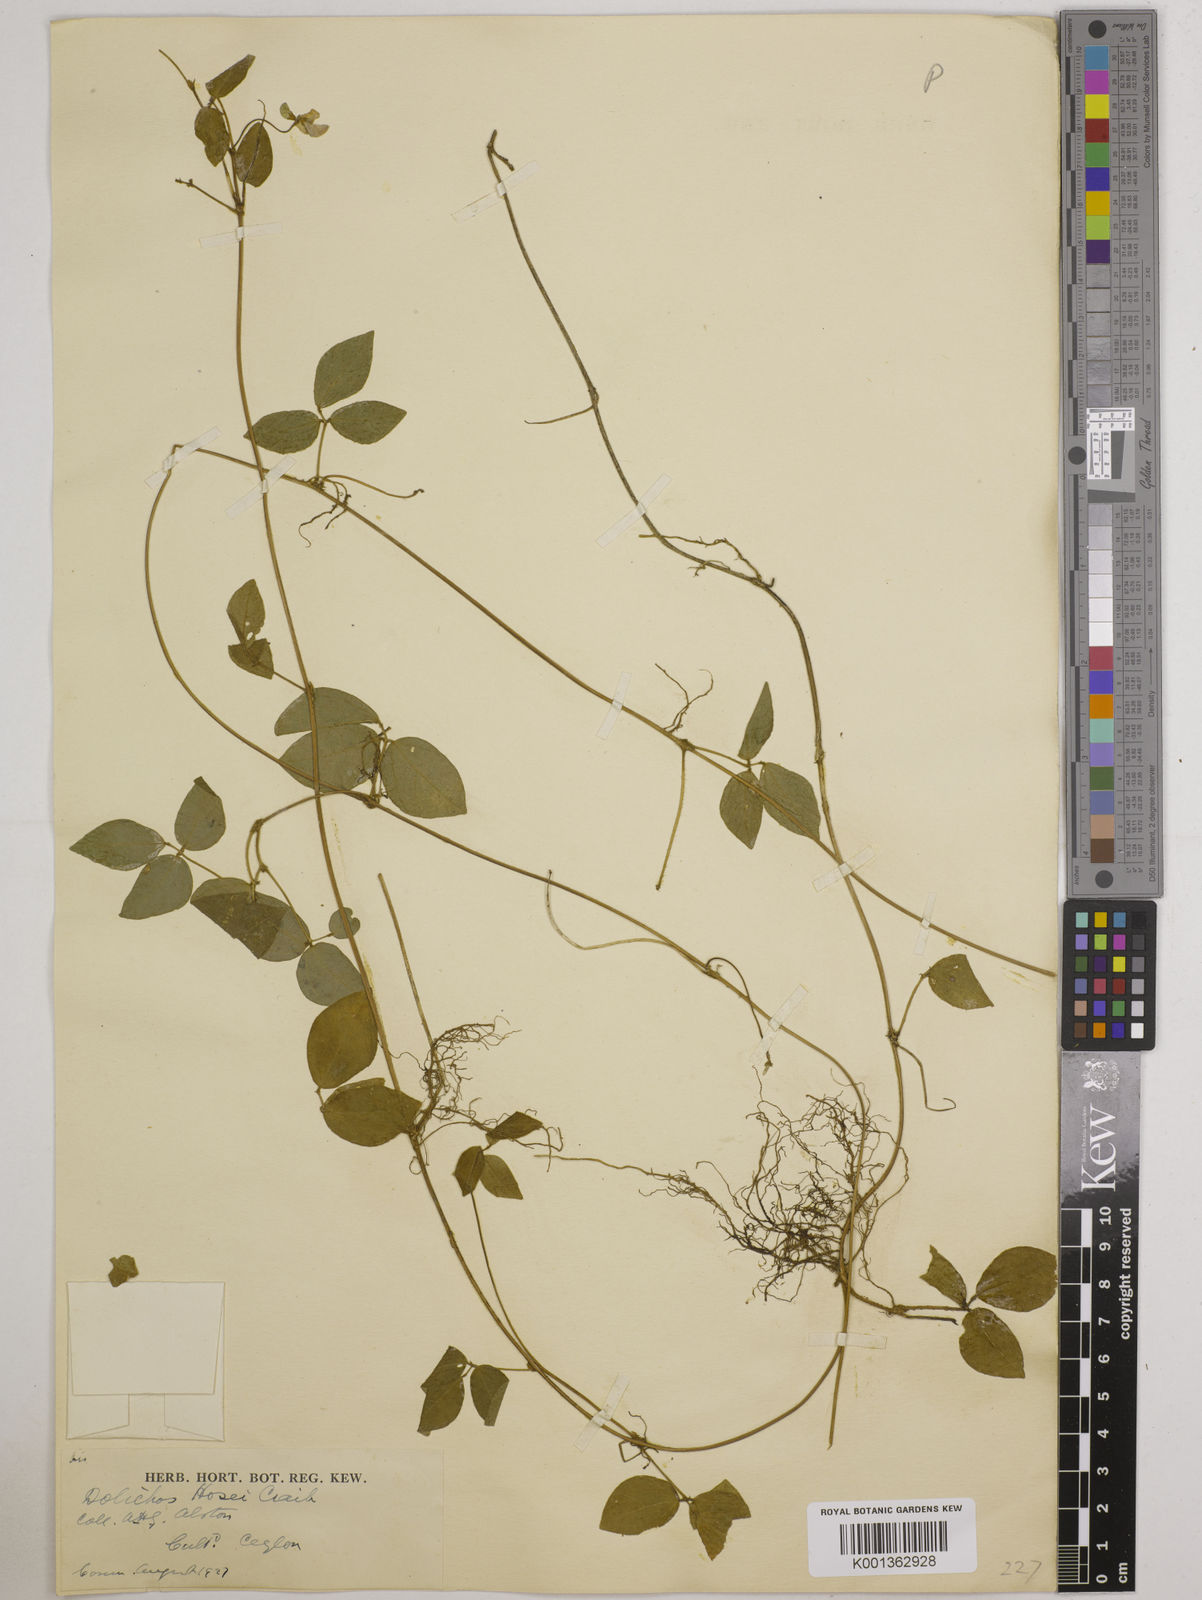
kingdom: Plantae
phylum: Tracheophyta
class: Magnoliopsida
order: Fabales
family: Fabaceae
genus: Vigna
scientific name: Vigna hosei
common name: Sarawak-bean
